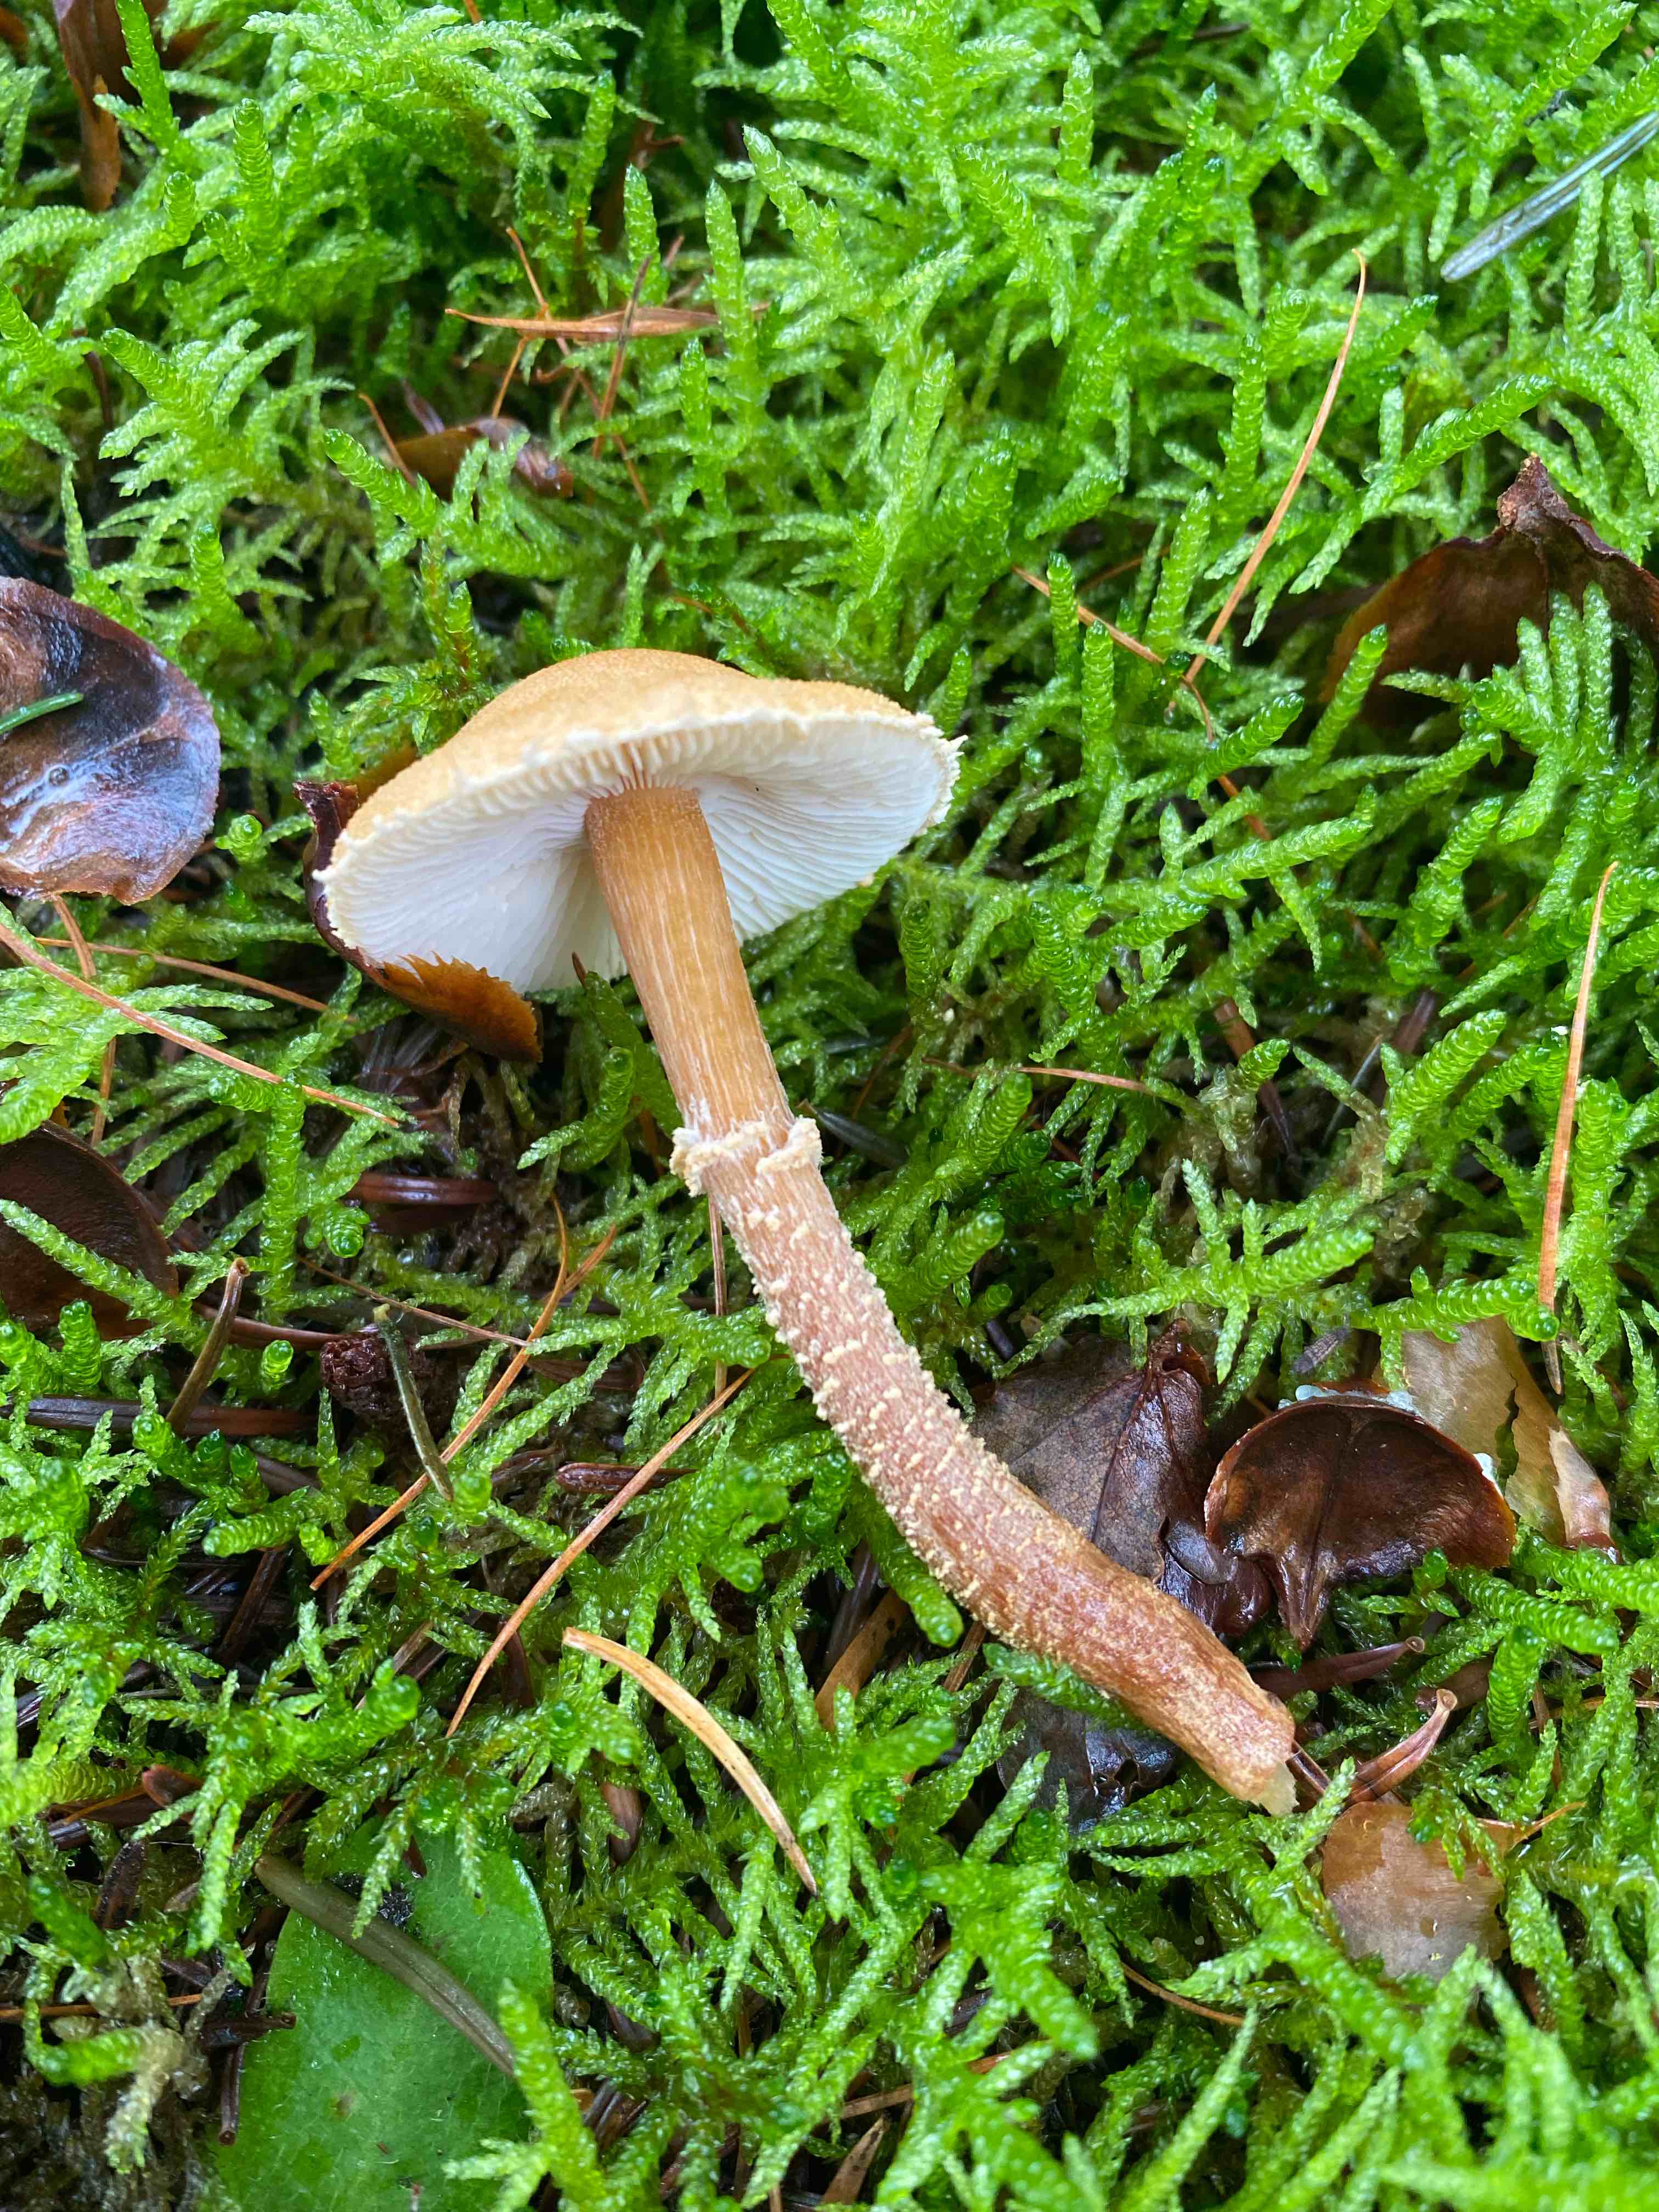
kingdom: Fungi
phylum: Basidiomycota
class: Agaricomycetes
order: Agaricales
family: Tricholomataceae
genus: Cystoderma
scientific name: Cystoderma amianthinum
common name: okkergul grynhat
